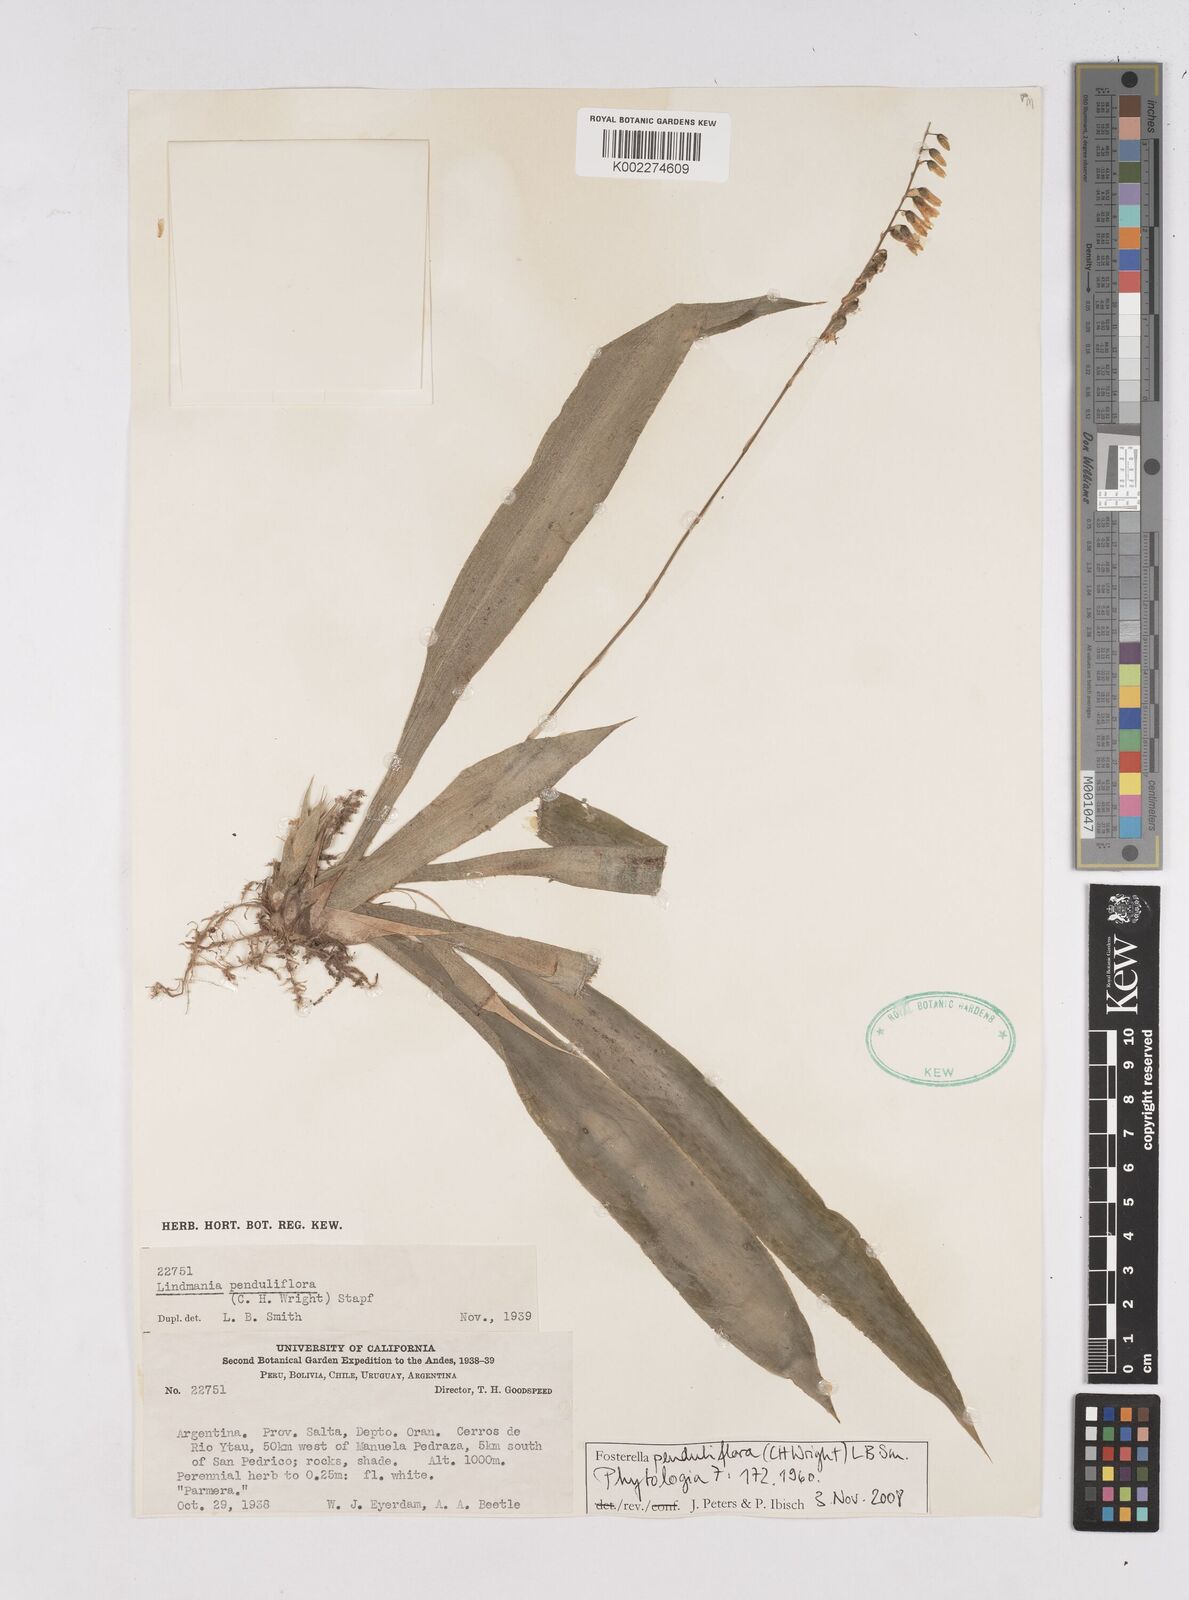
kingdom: Plantae
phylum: Tracheophyta
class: Liliopsida
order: Poales
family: Bromeliaceae
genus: Fosterella
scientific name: Fosterella penduliflora
